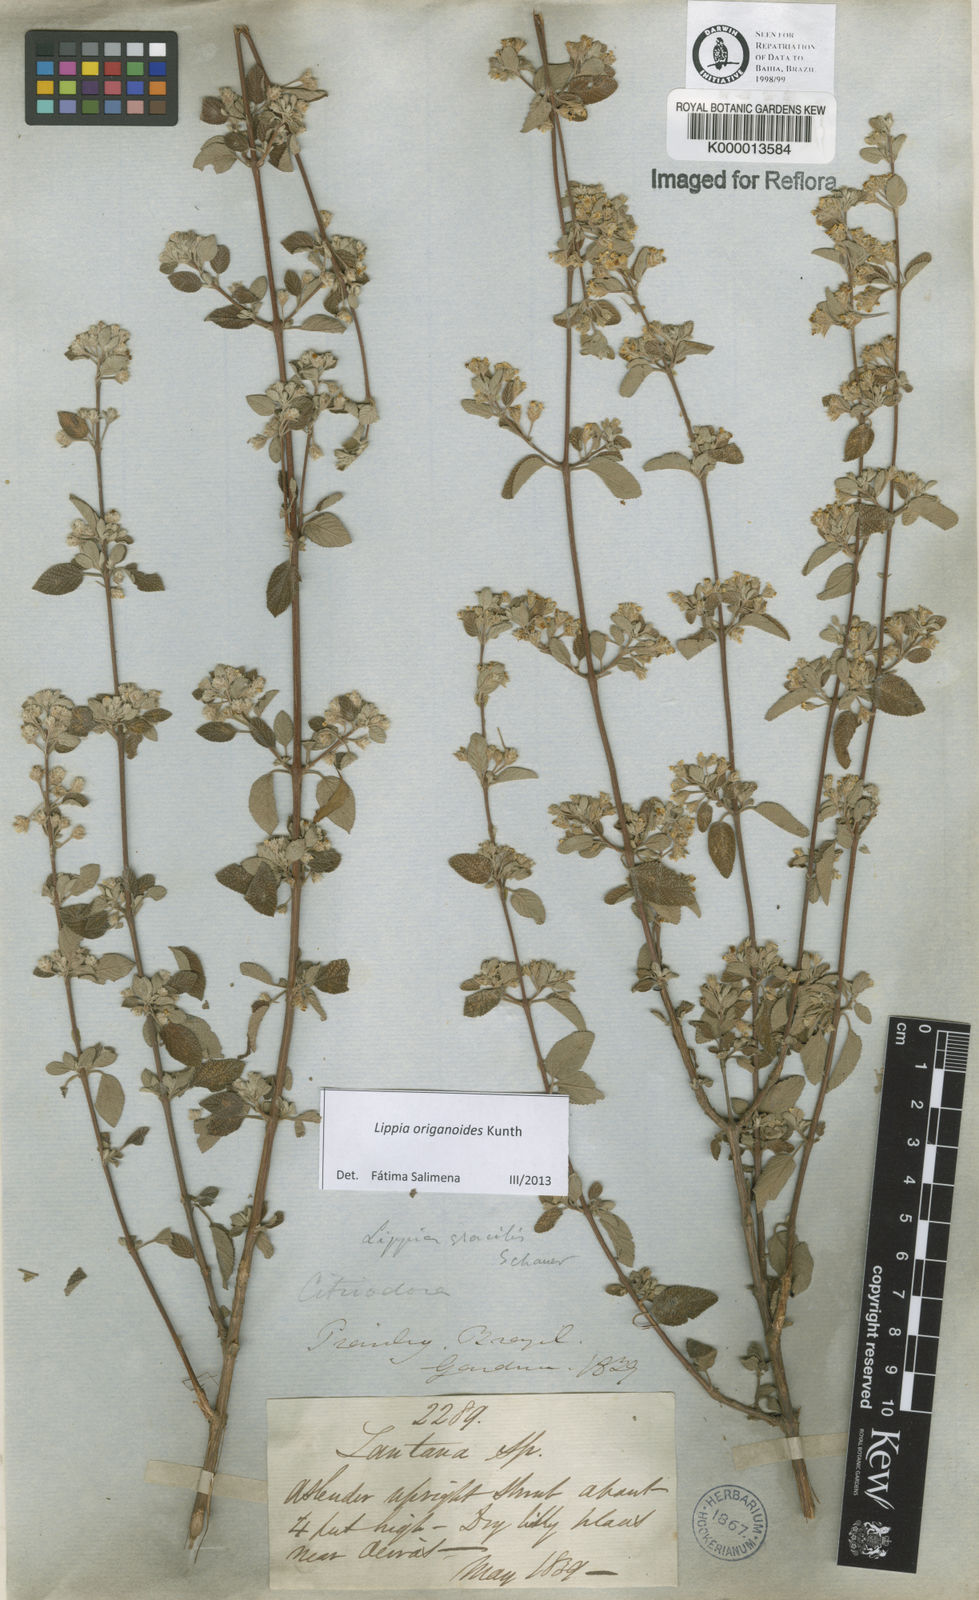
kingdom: Plantae
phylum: Tracheophyta
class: Magnoliopsida
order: Lamiales
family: Verbenaceae
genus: Lippia
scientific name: Lippia
